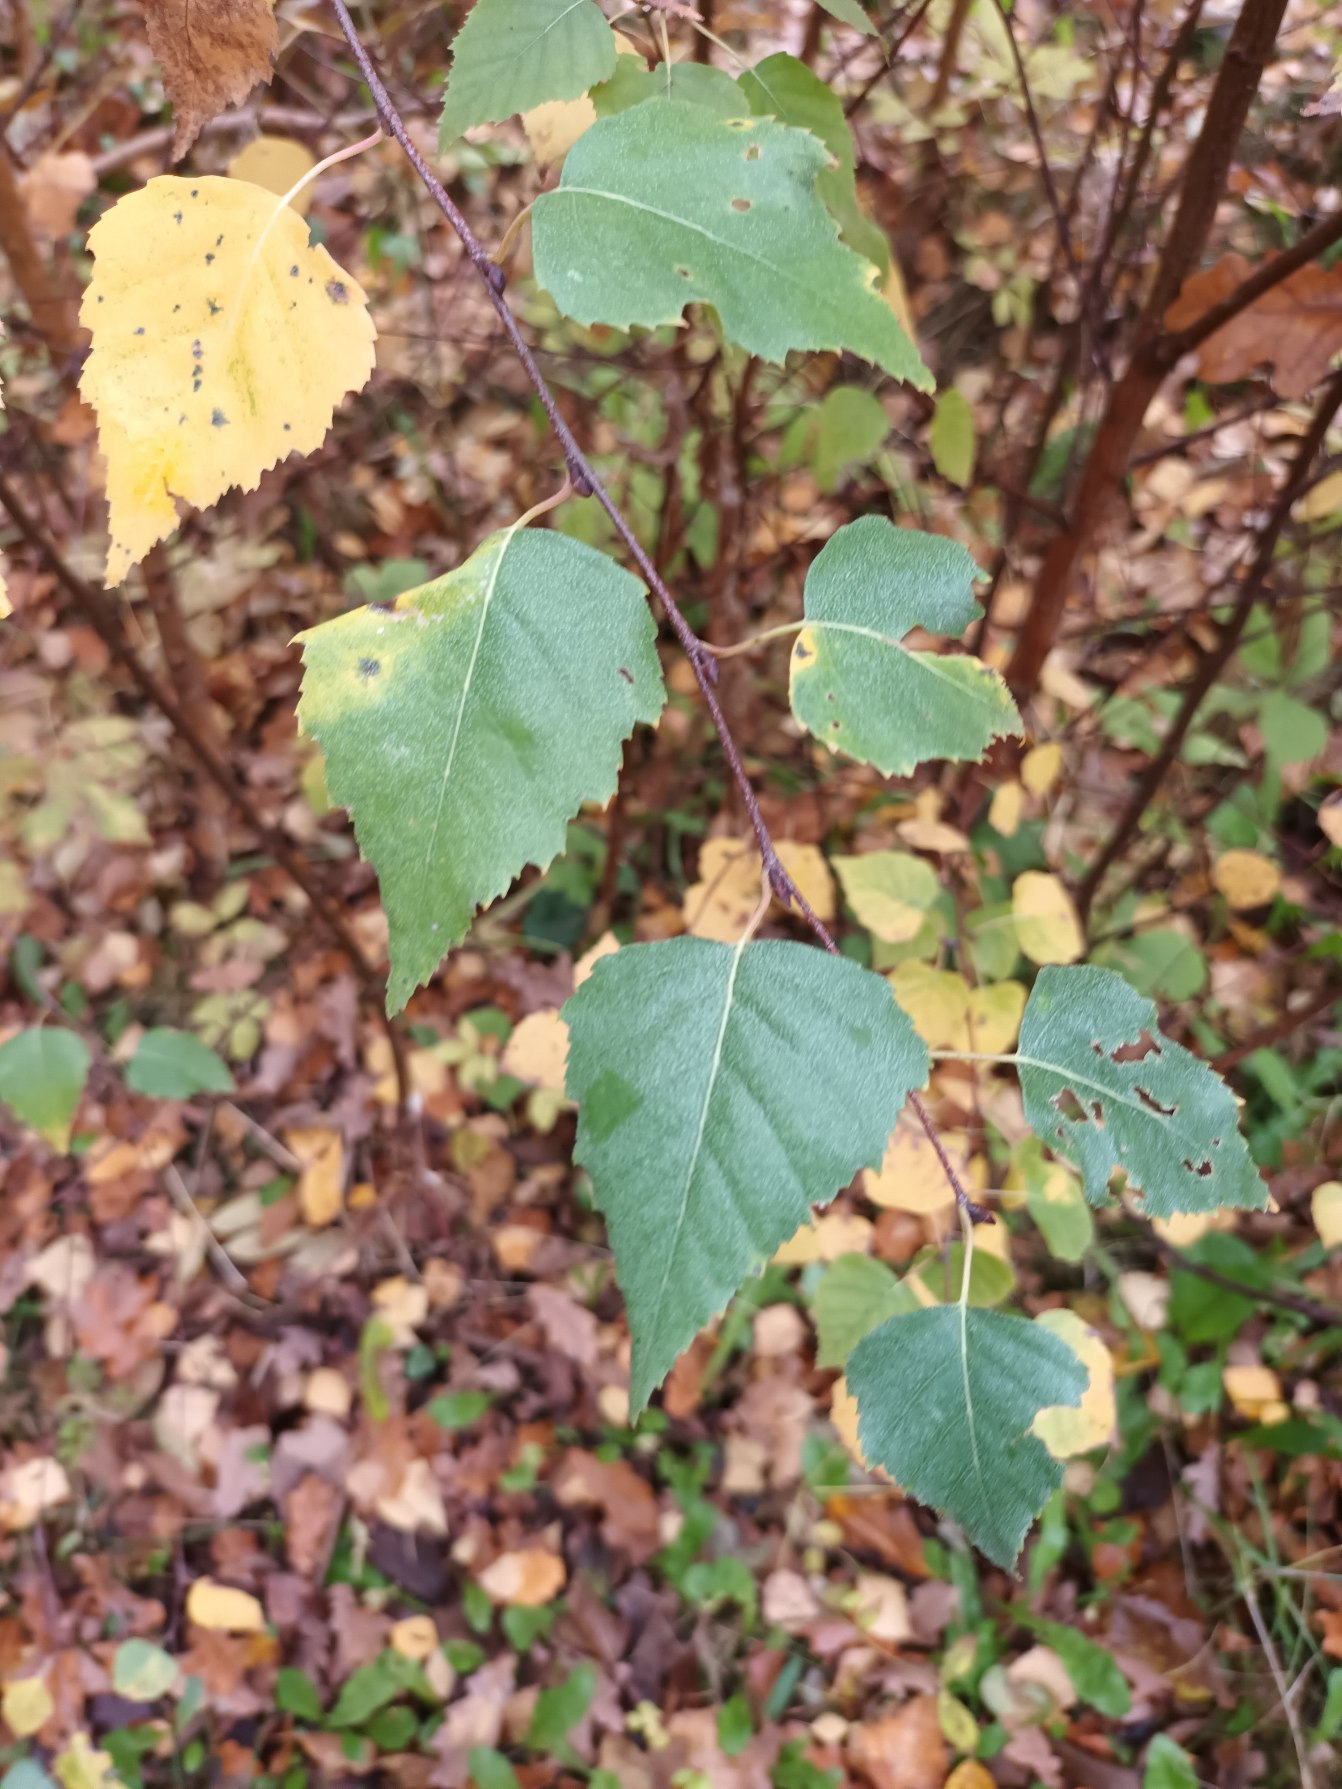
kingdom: Plantae
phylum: Tracheophyta
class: Magnoliopsida
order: Fagales
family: Betulaceae
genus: Betula
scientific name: Betula pendula
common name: Vorte-birk
